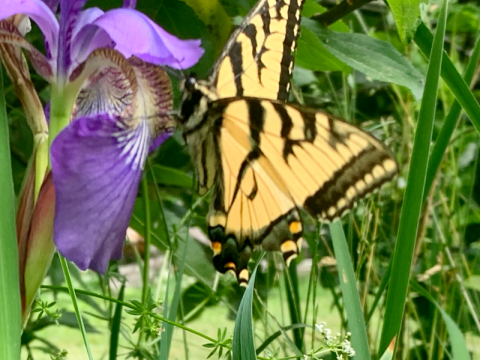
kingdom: Animalia
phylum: Arthropoda
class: Insecta
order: Lepidoptera
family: Papilionidae
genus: Pterourus
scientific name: Pterourus canadensis
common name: Canadian Tiger Swallowtail
